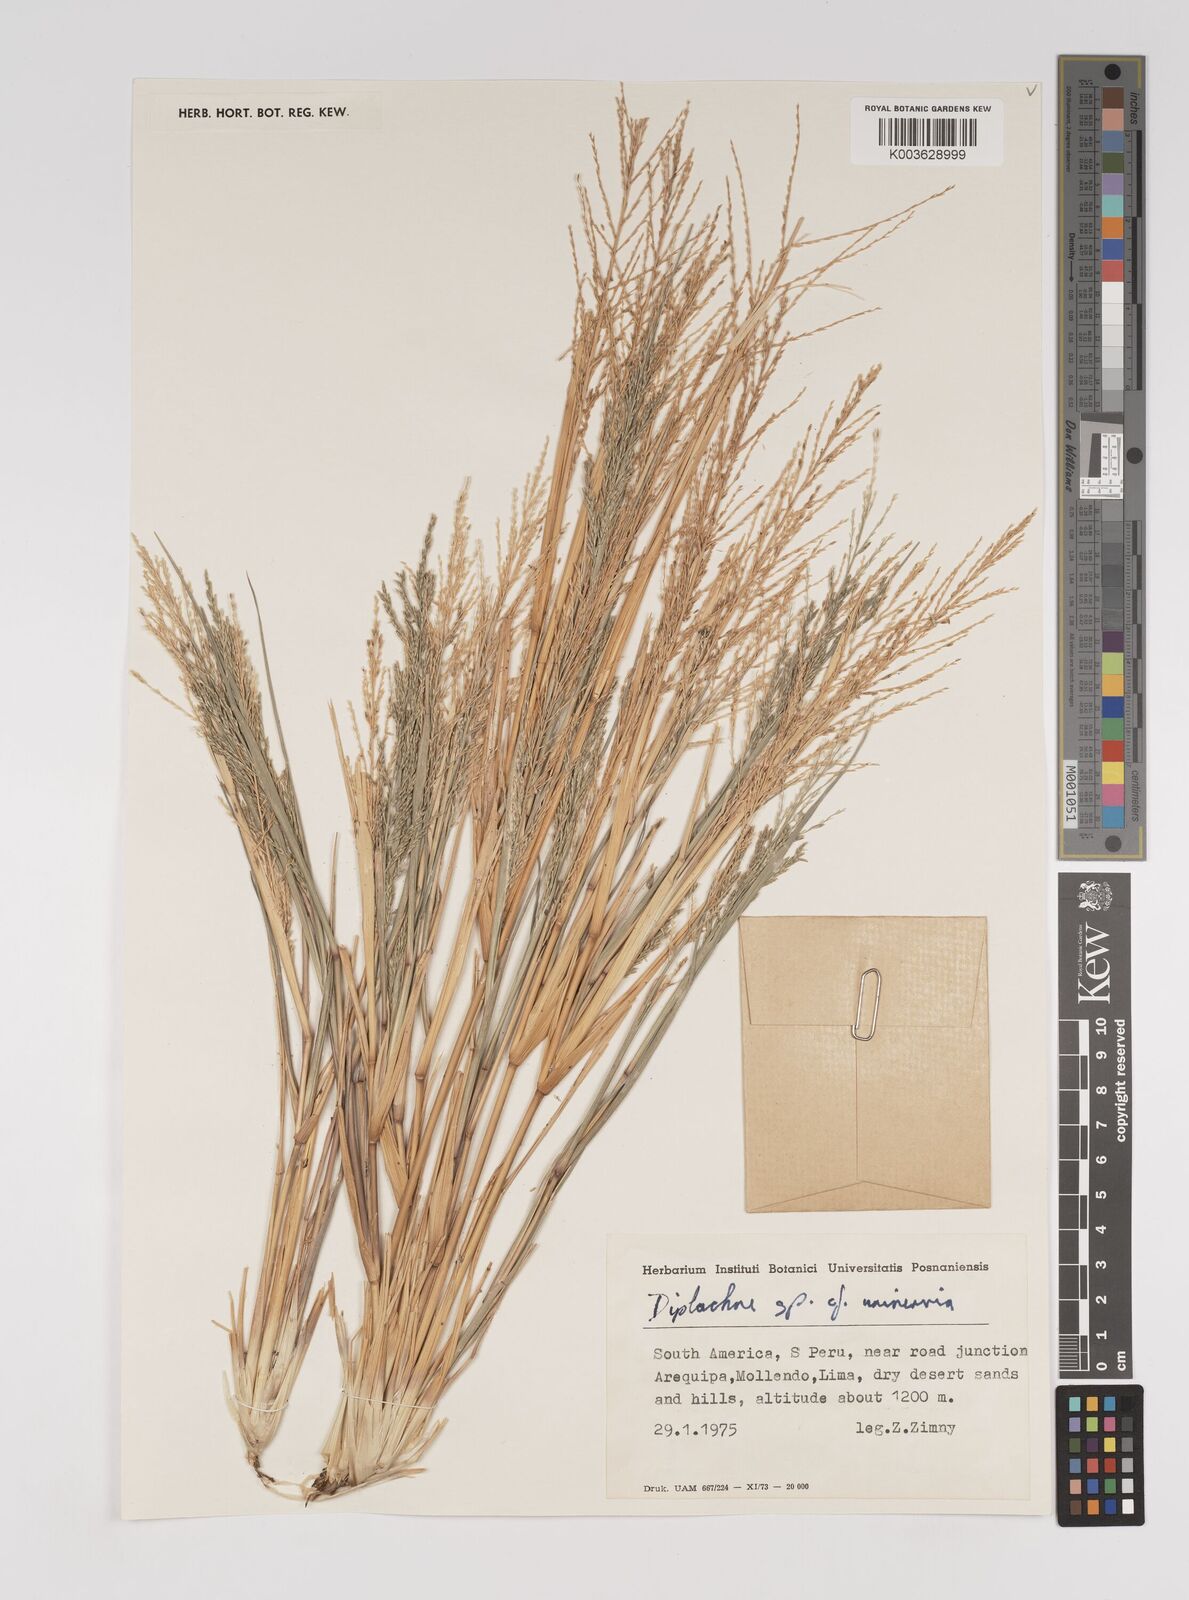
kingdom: Plantae
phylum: Tracheophyta
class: Liliopsida
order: Poales
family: Poaceae
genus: Diplachne
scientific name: Diplachne fusca
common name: Brown beetle grass
